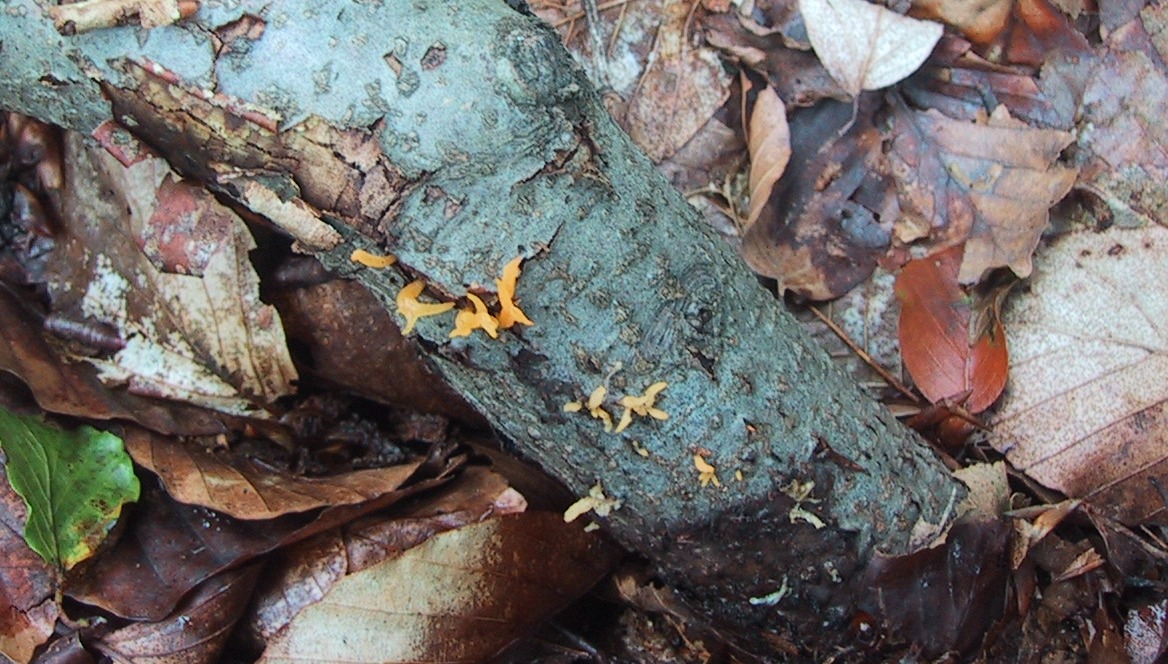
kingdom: Fungi
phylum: Basidiomycota
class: Dacrymycetes
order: Dacrymycetales
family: Dacrymycetaceae
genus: Calocera
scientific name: Calocera cornea
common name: liden guldgaffel
